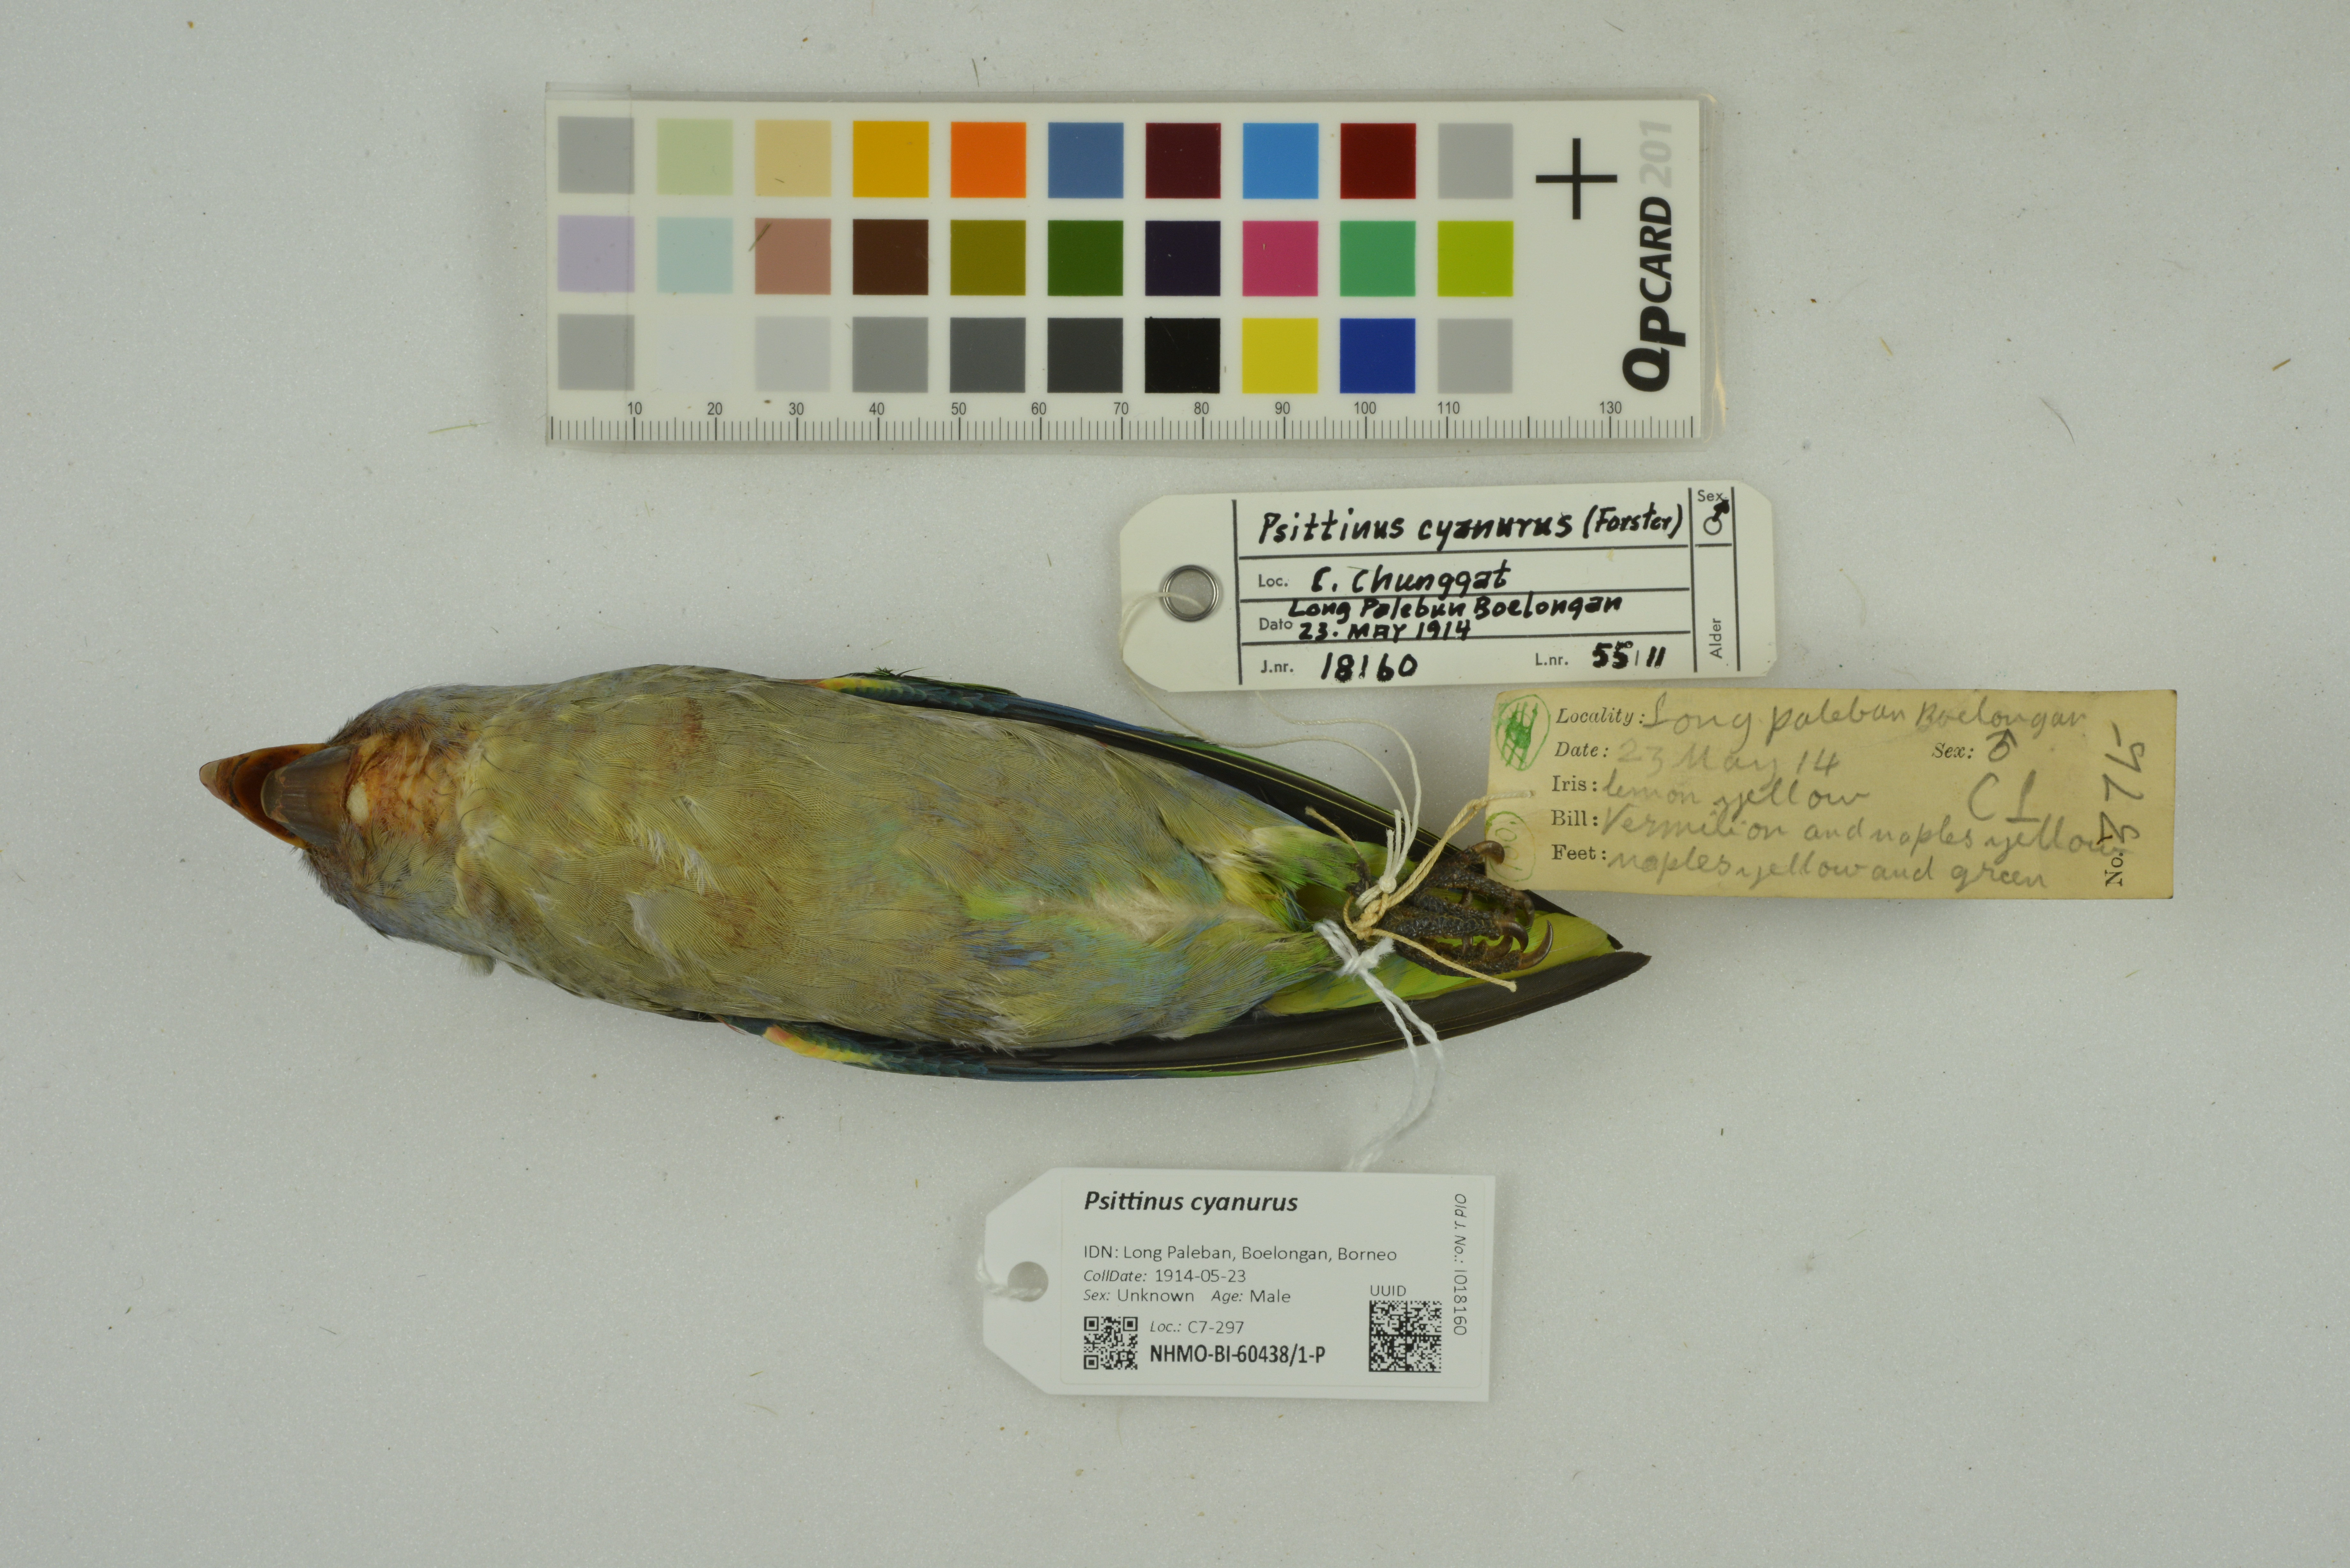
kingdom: Animalia
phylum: Chordata
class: Aves
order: Psittaciformes
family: Psittacidae
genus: Psittinus
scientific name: Psittinus cyanurus
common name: Blue-rumped parrot
